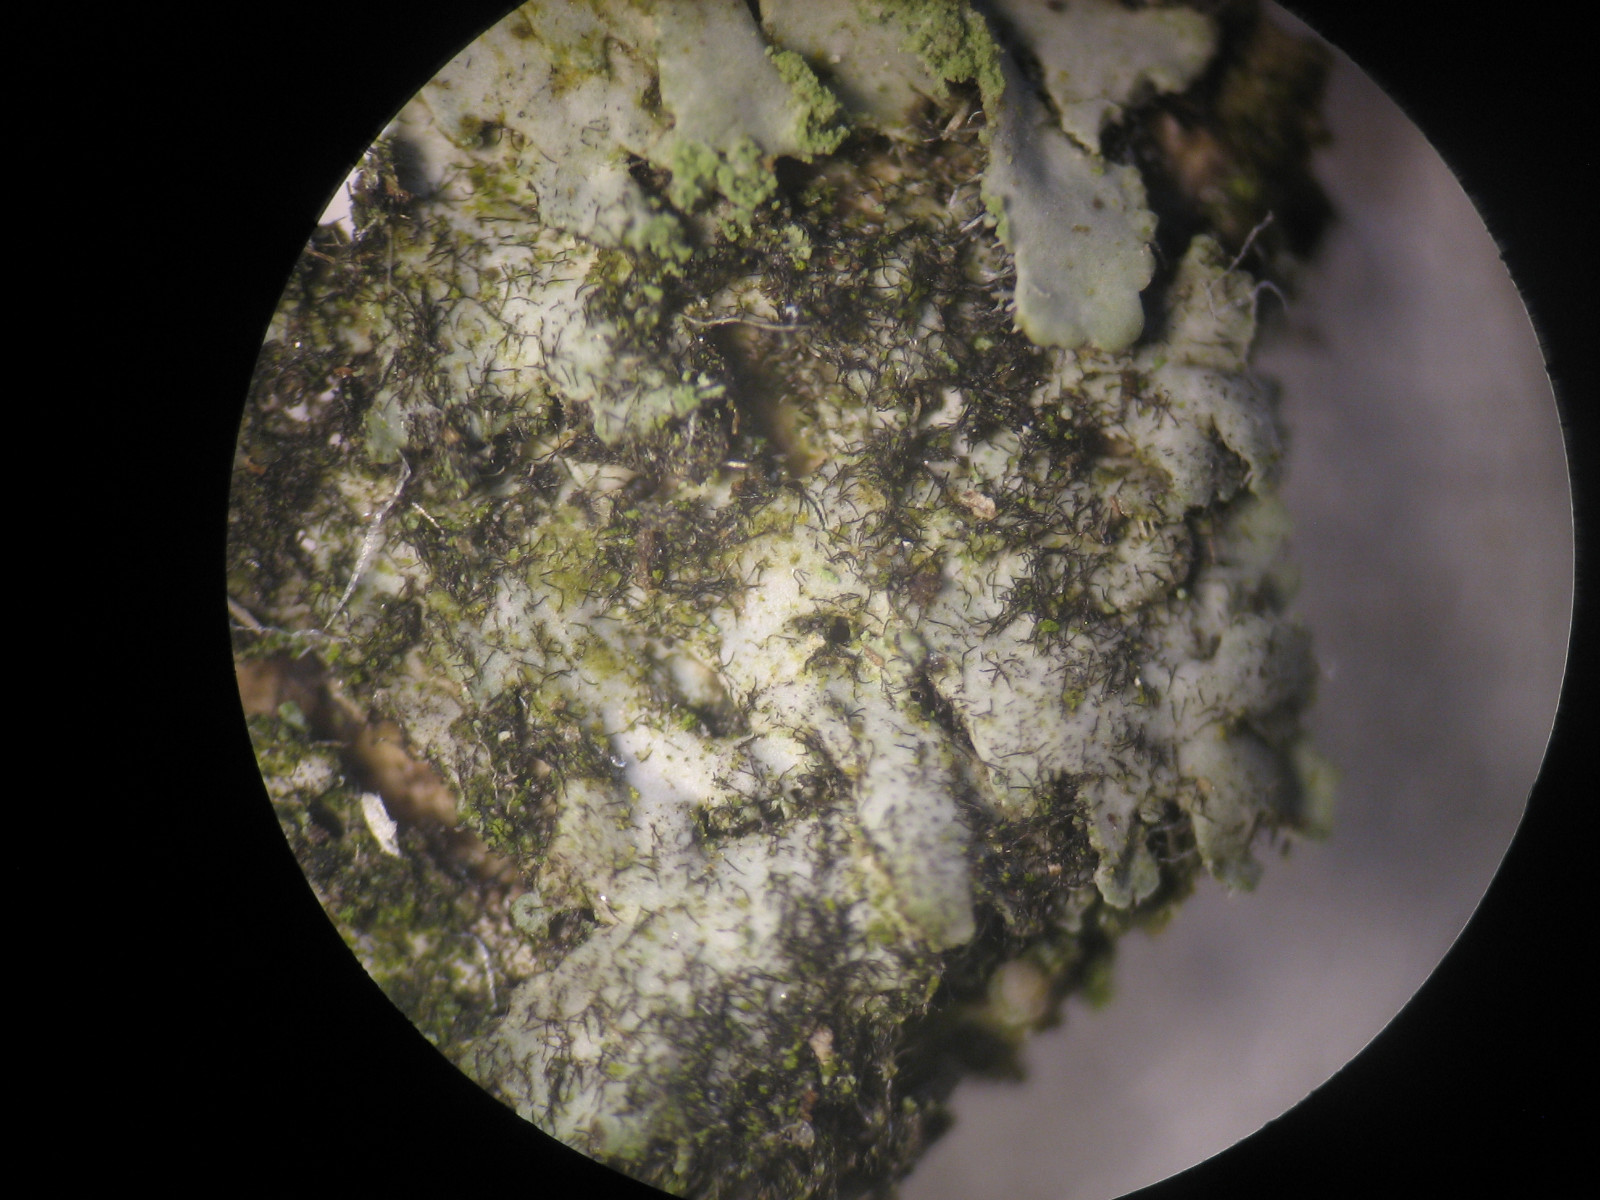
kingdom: Fungi
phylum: Ascomycota
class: Dothideomycetes
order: Mytilinidiales
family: Mytilinidiaceae
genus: Taeniolella
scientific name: Taeniolella phaeophysciae
